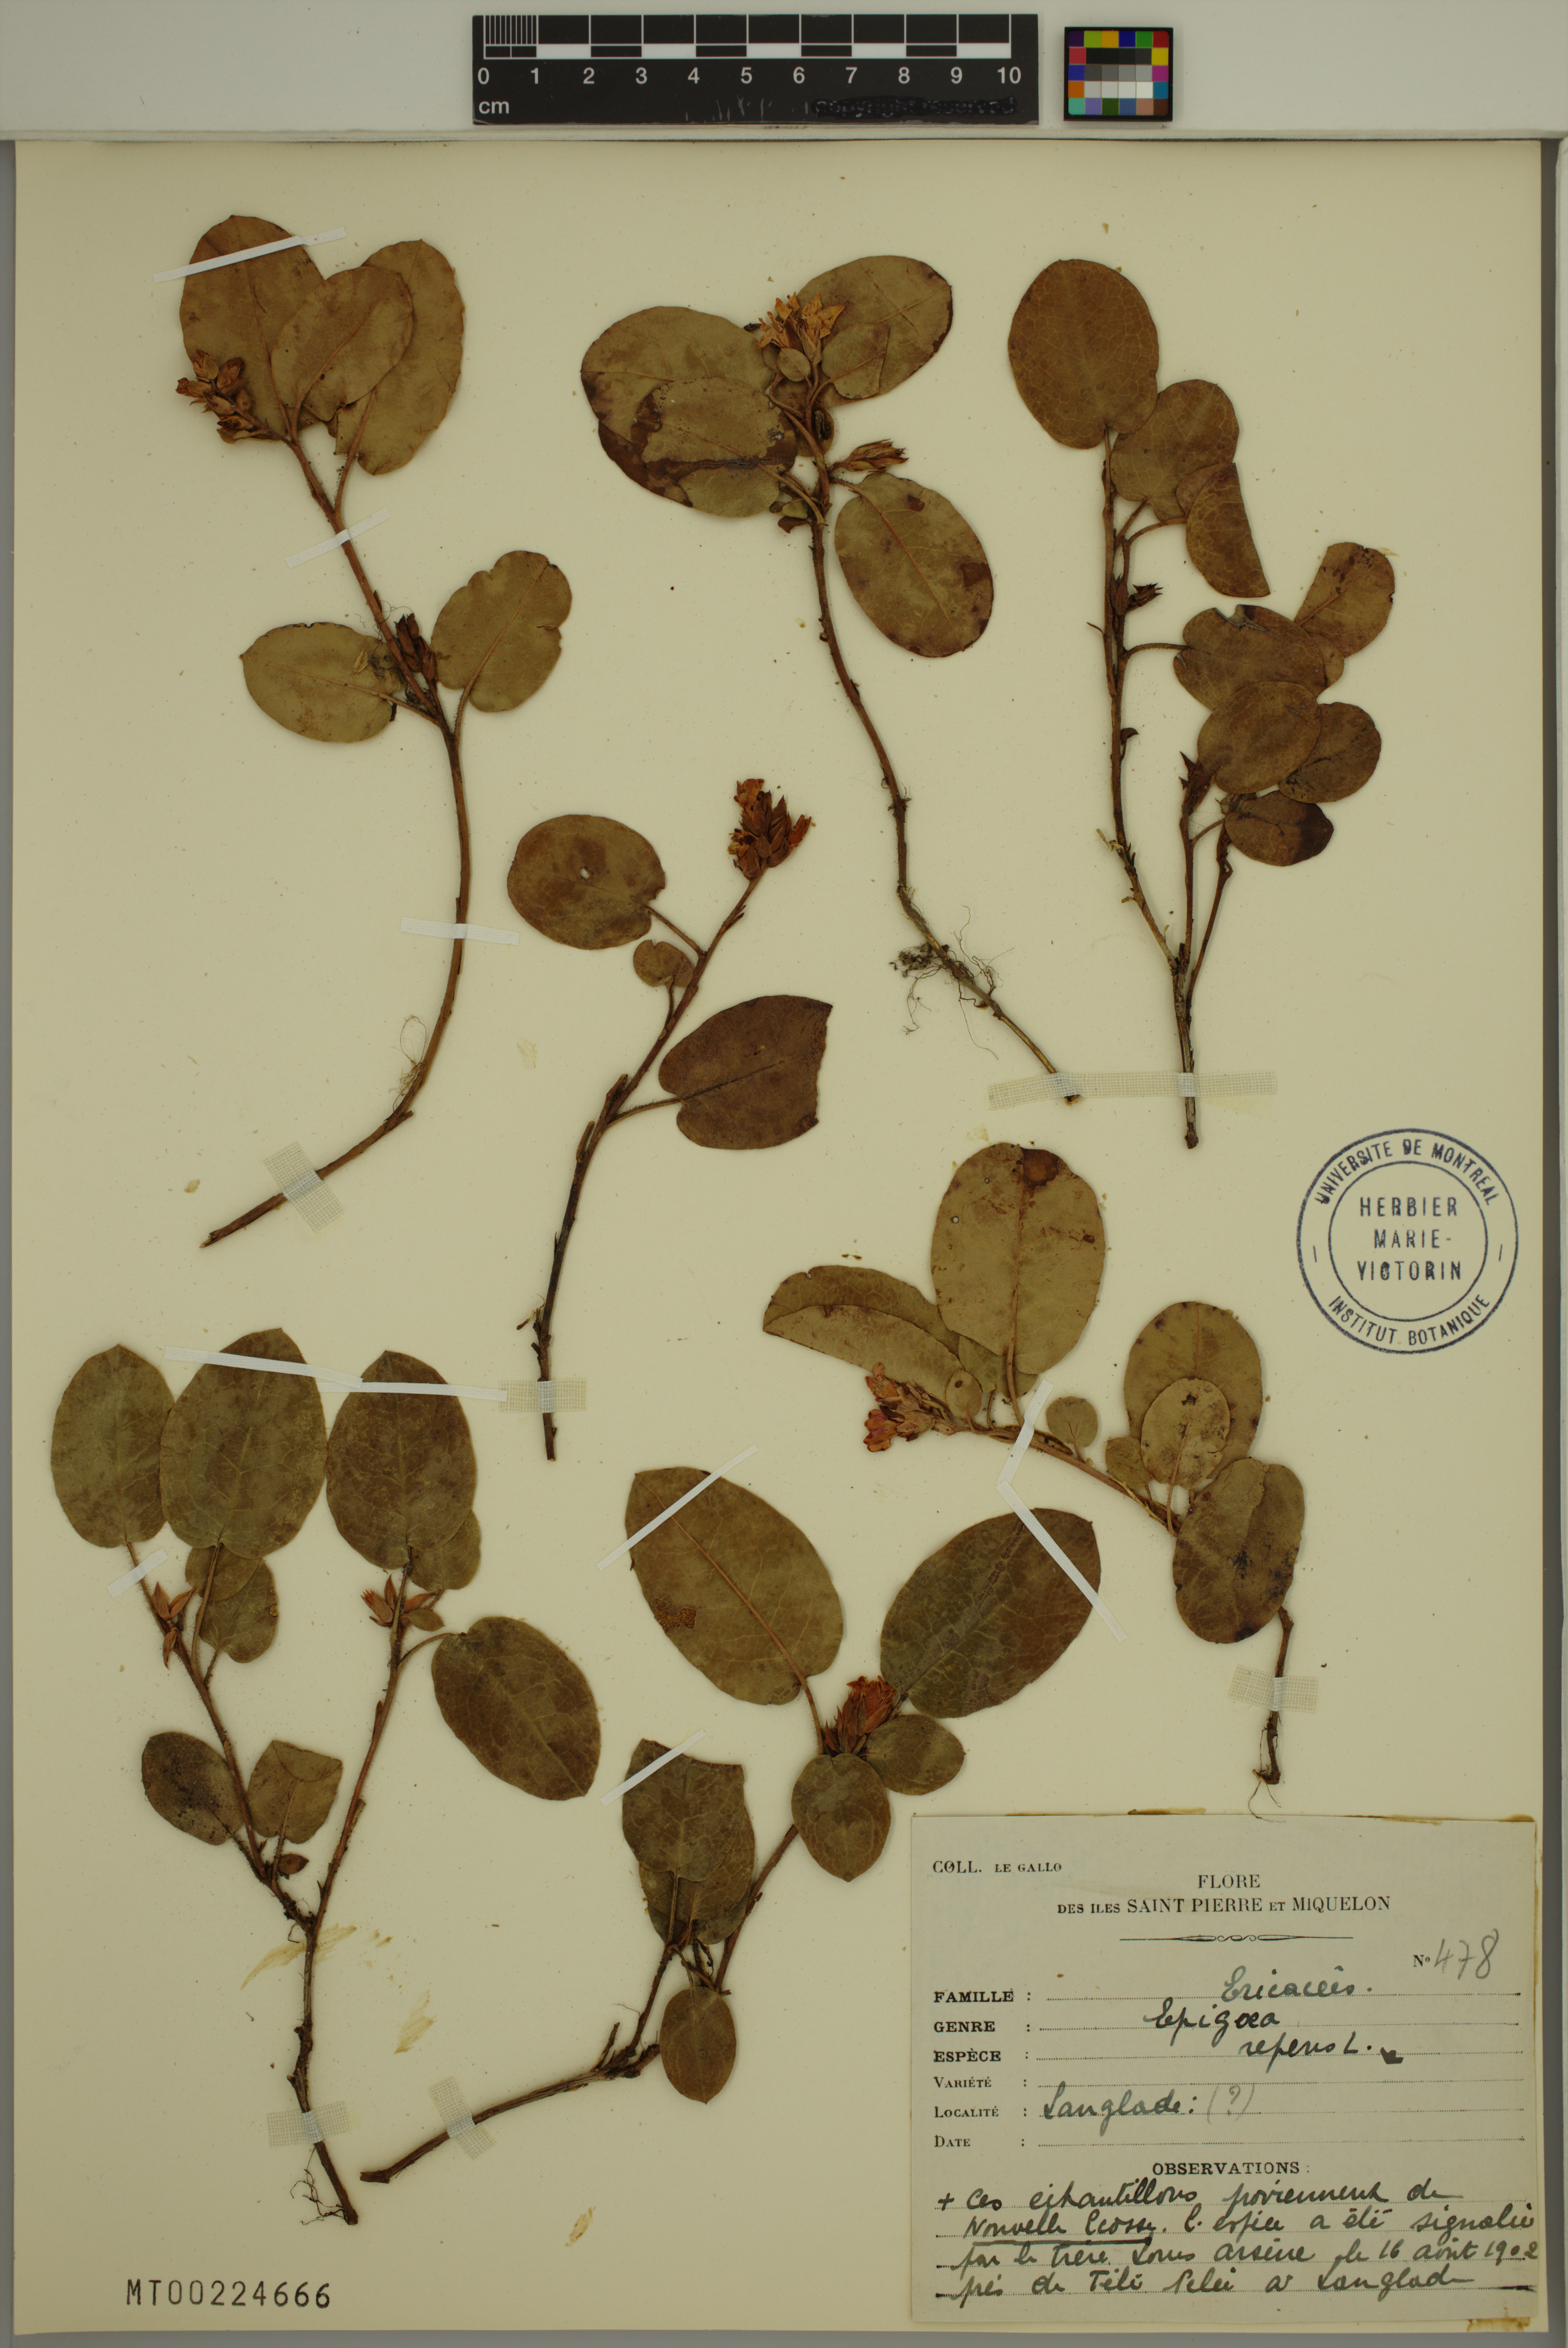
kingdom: Plantae
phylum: Tracheophyta
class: Magnoliopsida
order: Ericales
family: Ericaceae
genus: Epigaea
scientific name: Epigaea repens
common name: Gravelroot
